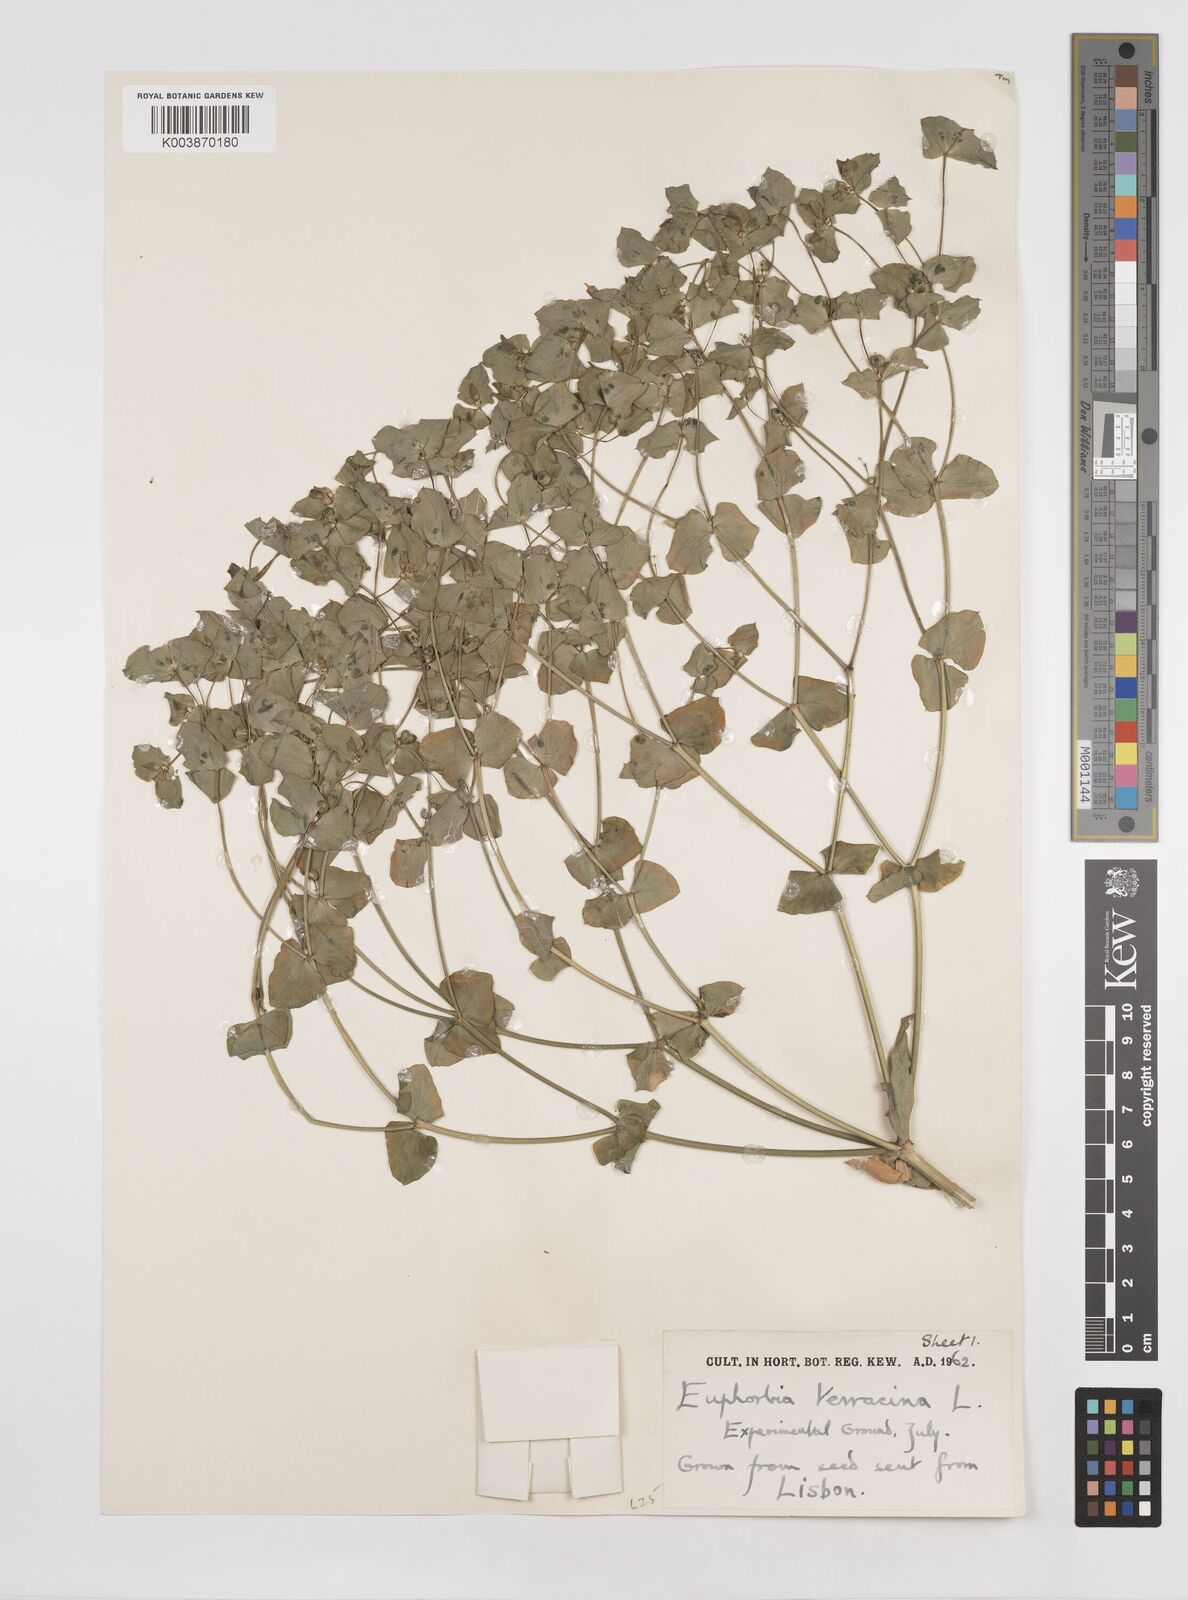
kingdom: Plantae
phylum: Tracheophyta
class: Magnoliopsida
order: Malpighiales
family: Euphorbiaceae
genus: Euphorbia
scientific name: Euphorbia terracina
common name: Geraldton carnation weed
